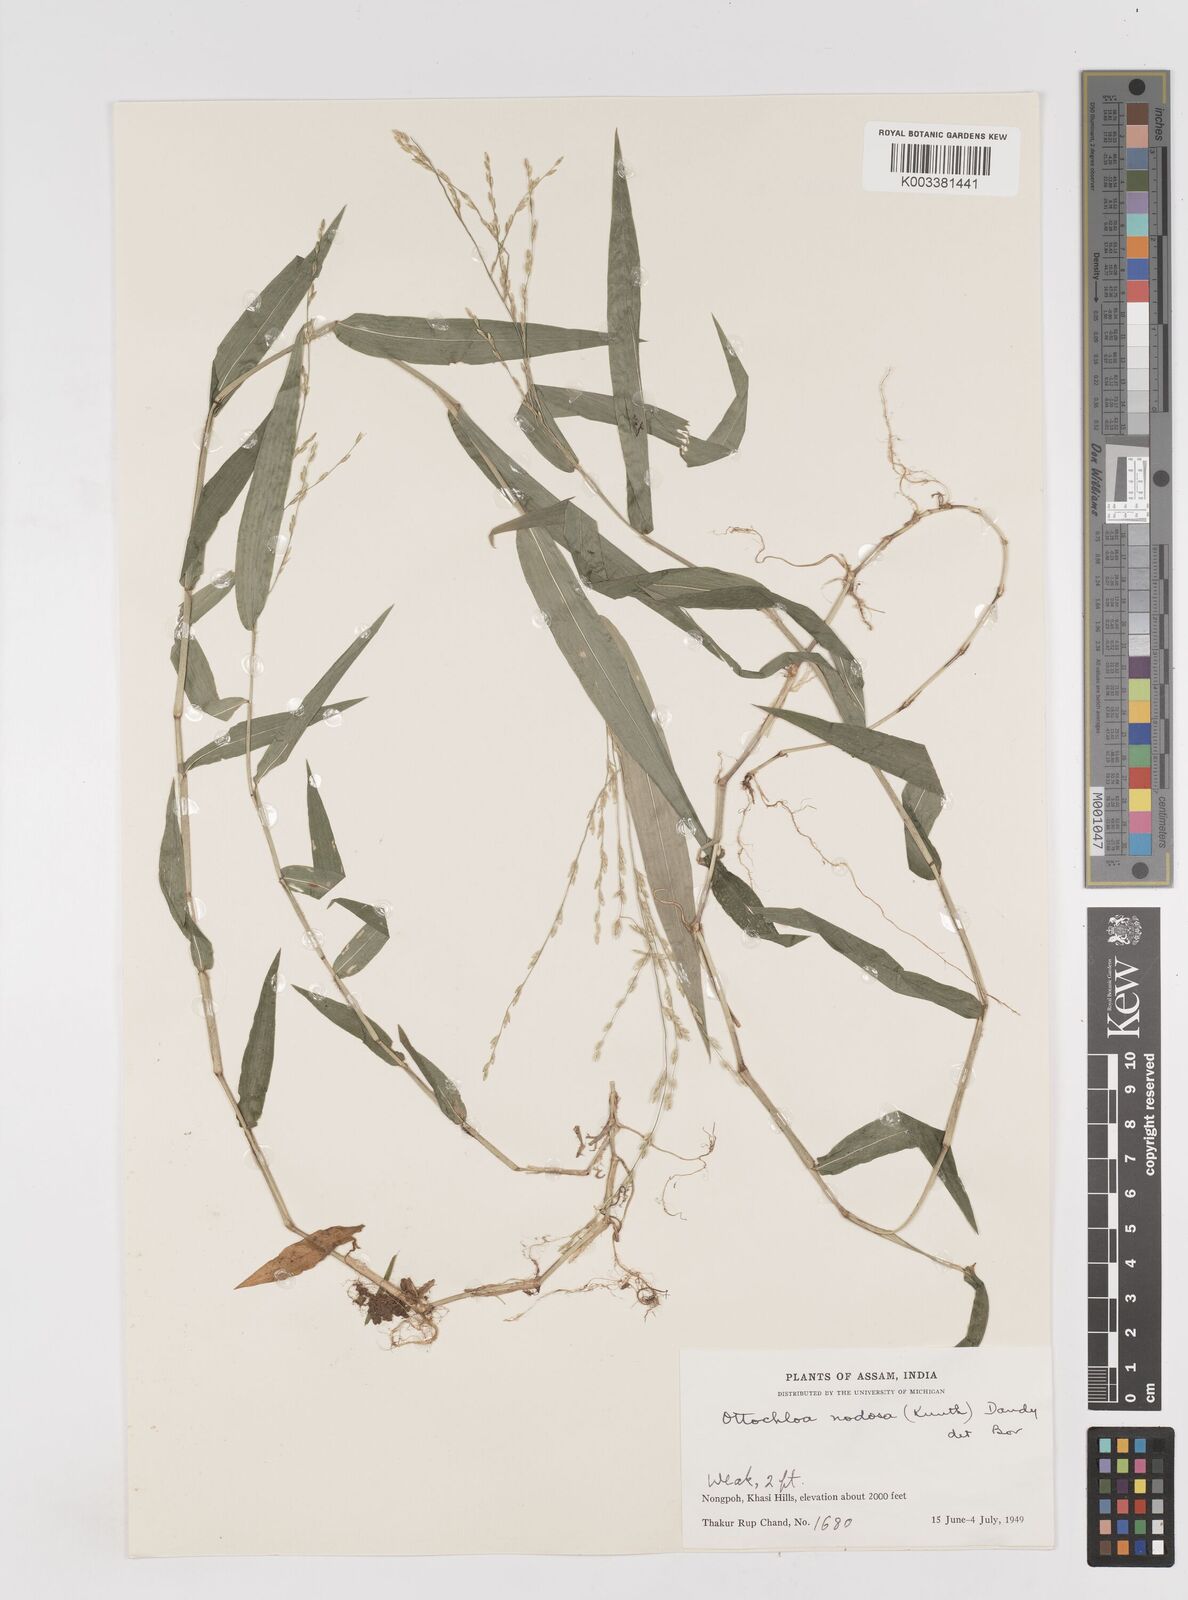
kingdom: Plantae
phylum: Tracheophyta
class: Liliopsida
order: Poales
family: Poaceae
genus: Ottochloa
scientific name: Ottochloa nodosa
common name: Slender-panic grass
